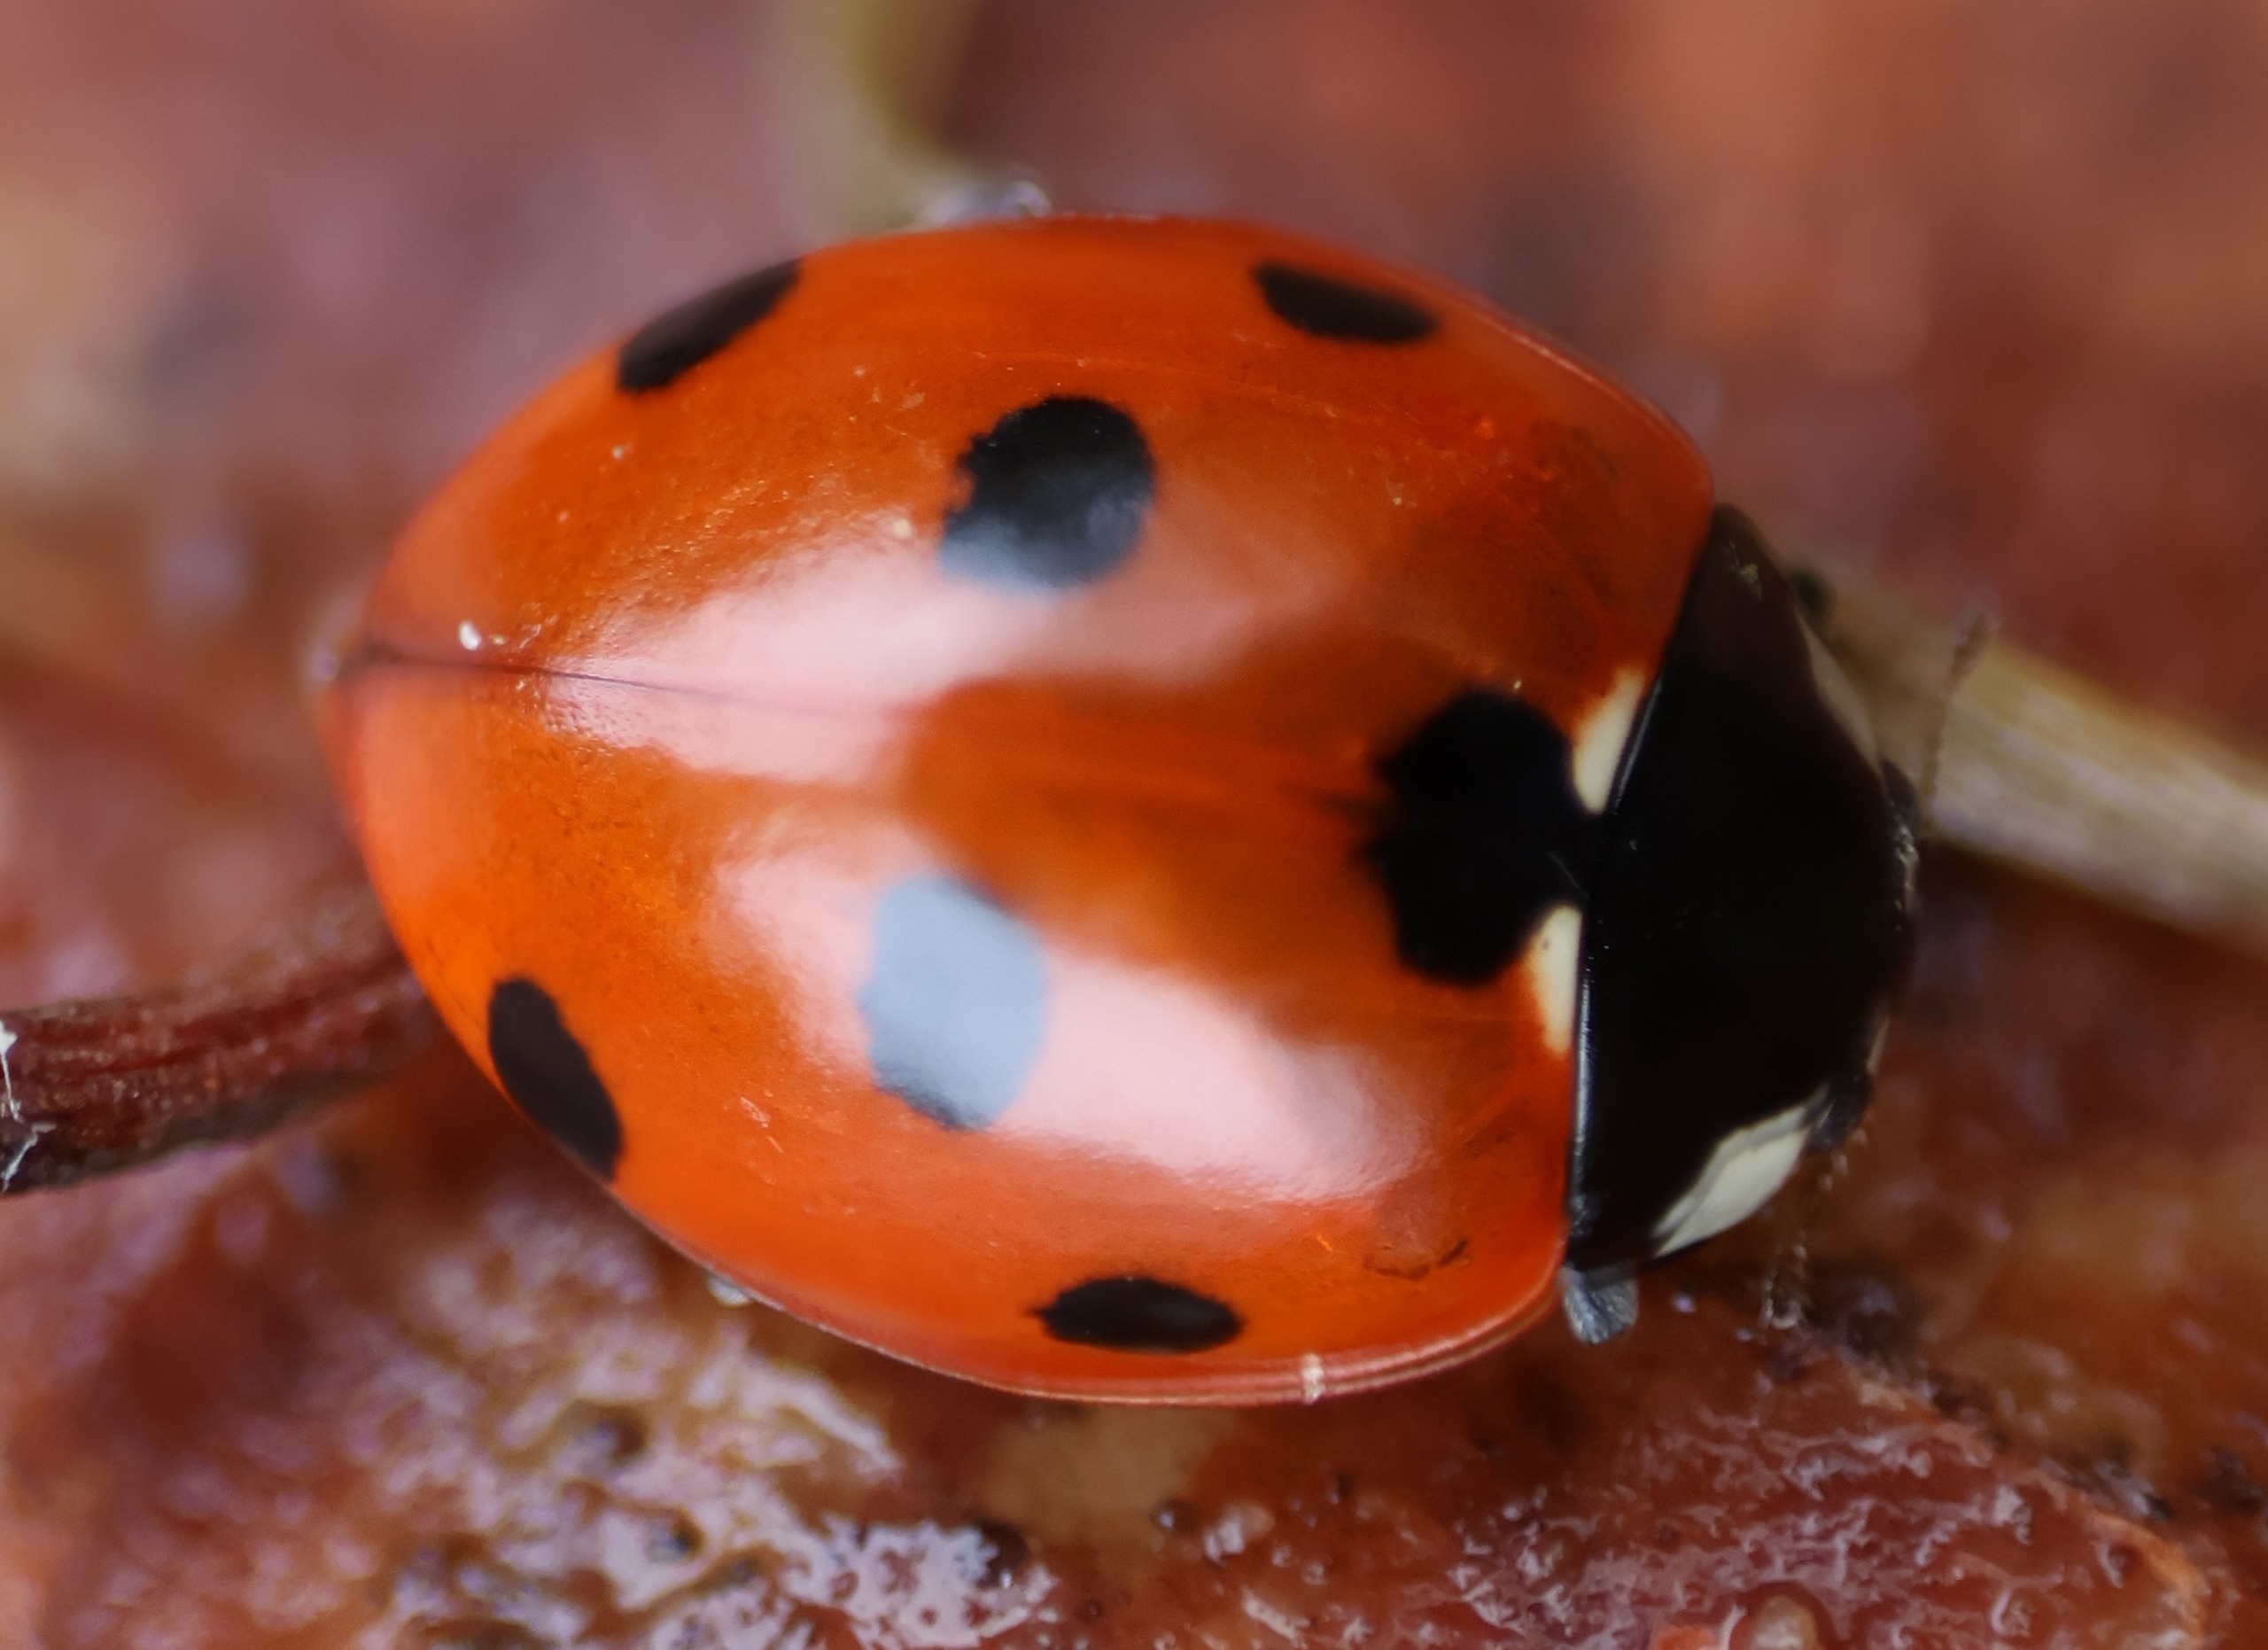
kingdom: Animalia
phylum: Arthropoda
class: Insecta
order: Coleoptera
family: Coccinellidae
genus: Coccinella
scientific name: Coccinella septempunctata
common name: Syvplettet mariehøne
